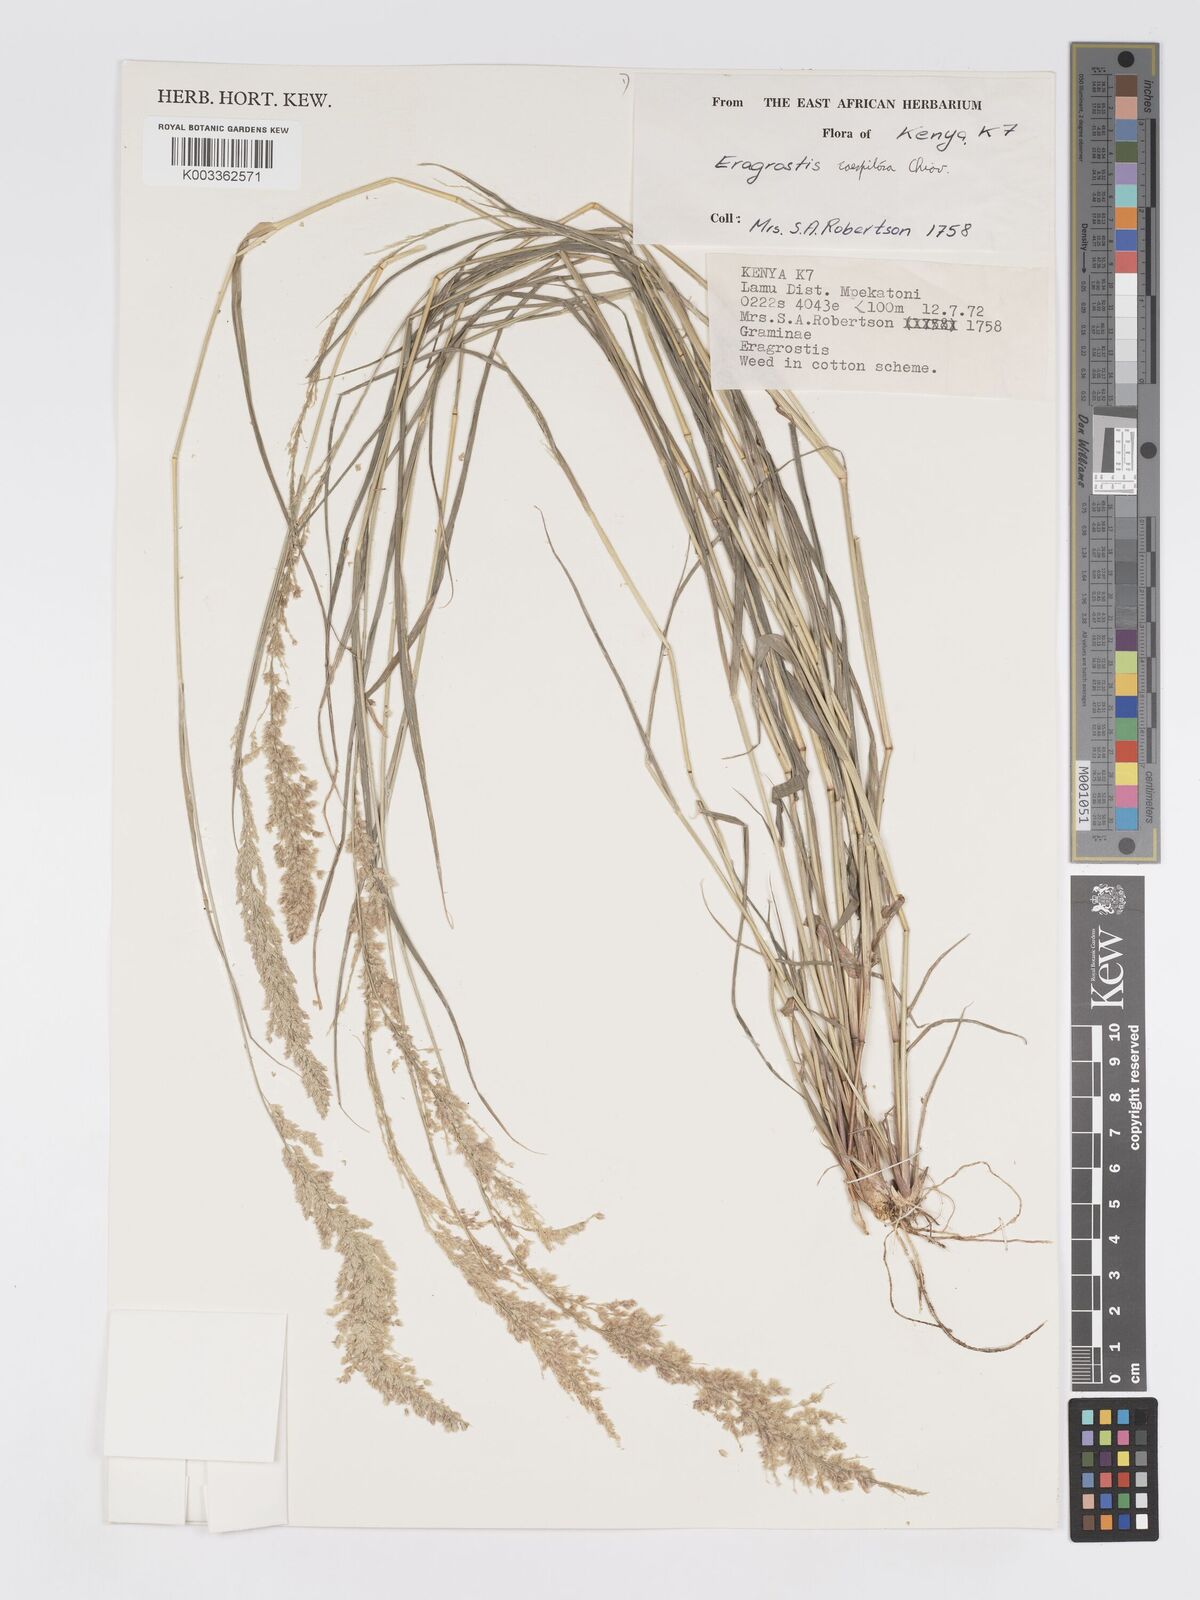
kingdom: Plantae
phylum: Tracheophyta
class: Liliopsida
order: Poales
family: Poaceae
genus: Eragrostis
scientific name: Eragrostis caespitosa
